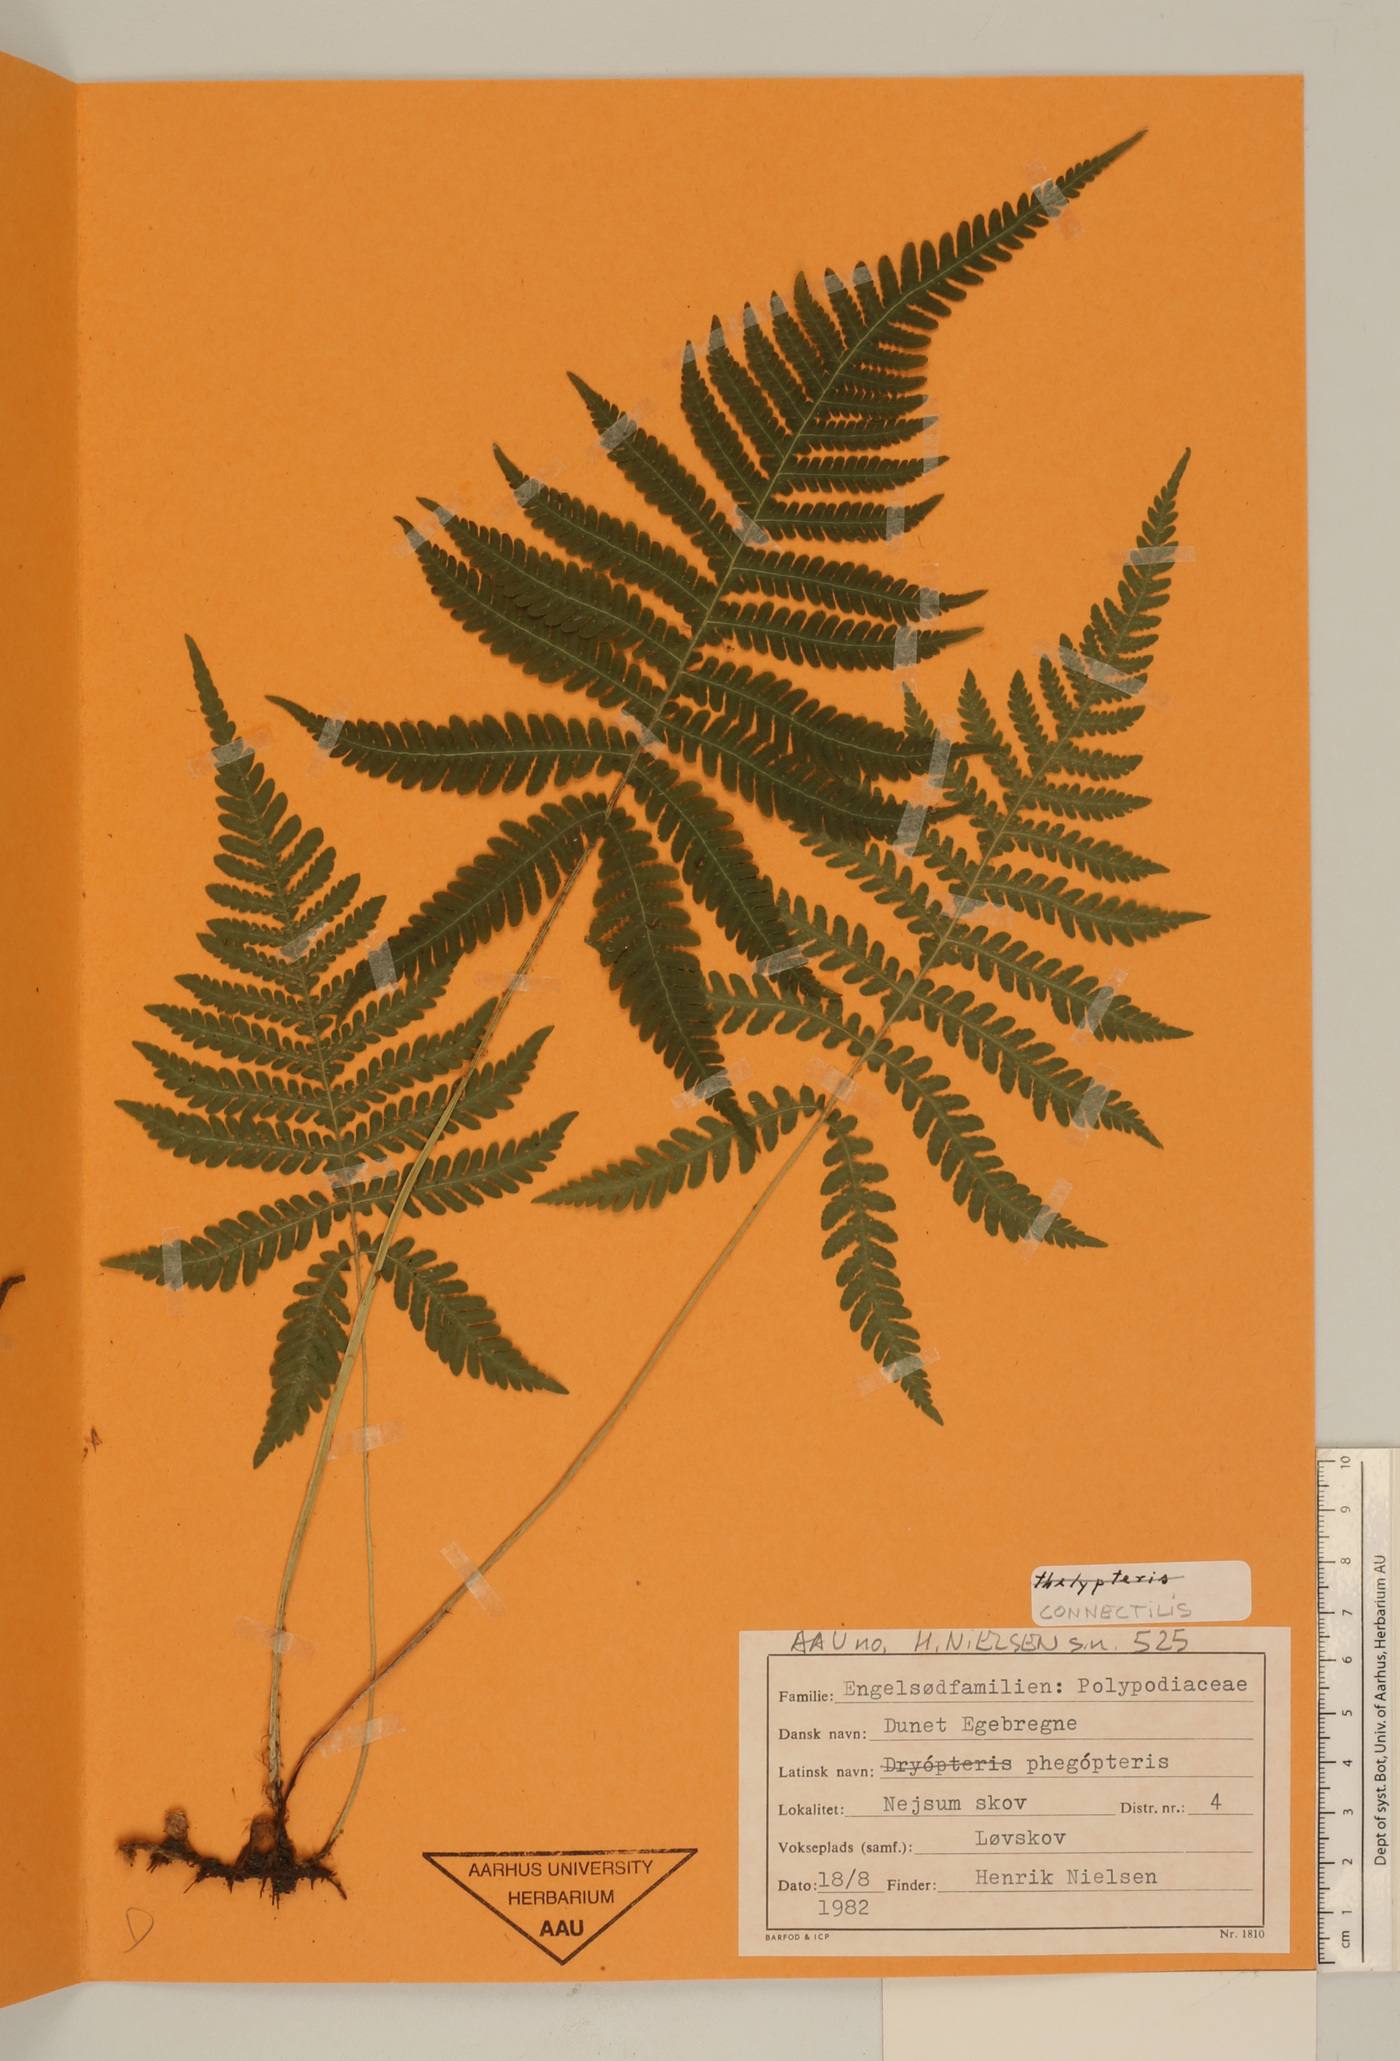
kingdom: Plantae
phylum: Tracheophyta
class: Polypodiopsida
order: Polypodiales
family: Thelypteridaceae
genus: Phegopteris
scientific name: Phegopteris connectilis
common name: Beech fern
